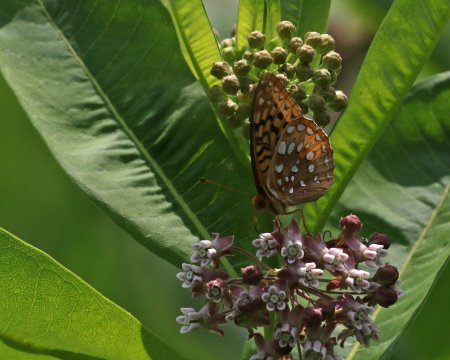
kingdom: Animalia
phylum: Arthropoda
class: Insecta
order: Lepidoptera
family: Nymphalidae
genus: Speyeria
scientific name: Speyeria cybele
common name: Great Spangled Fritillary
